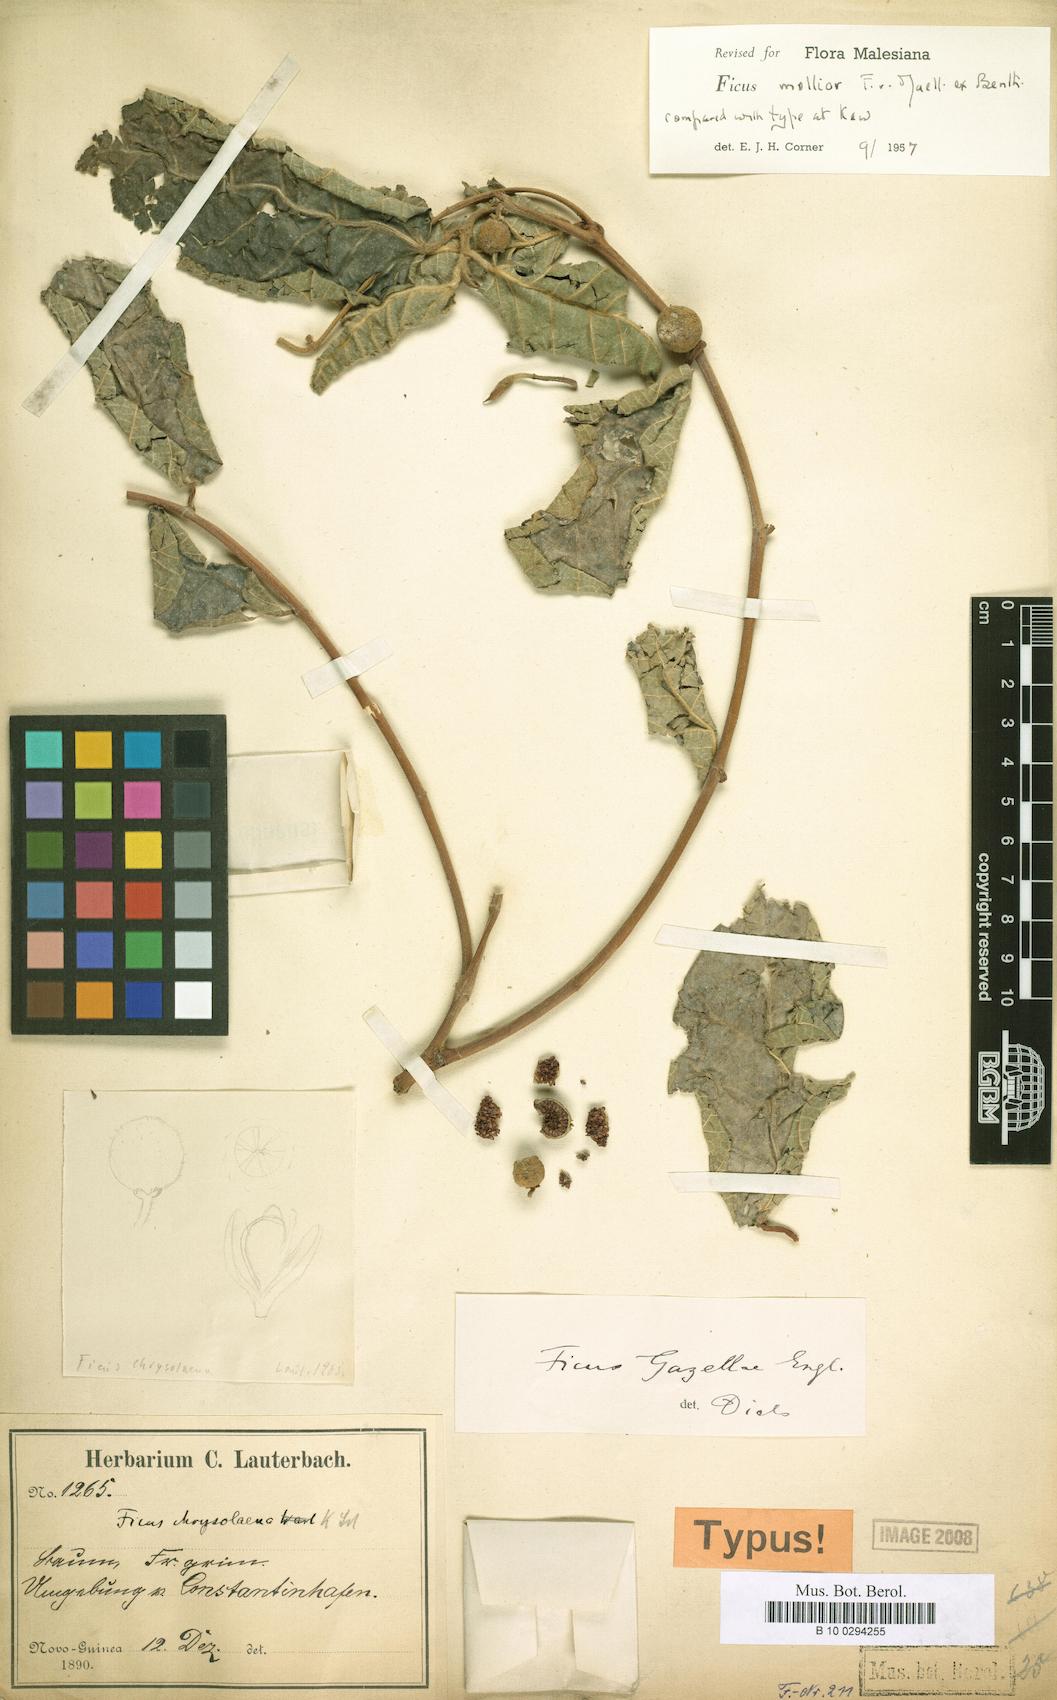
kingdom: Plantae
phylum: Tracheophyta
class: Magnoliopsida
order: Rosales
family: Moraceae
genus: Ficus
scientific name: Ficus mollior
